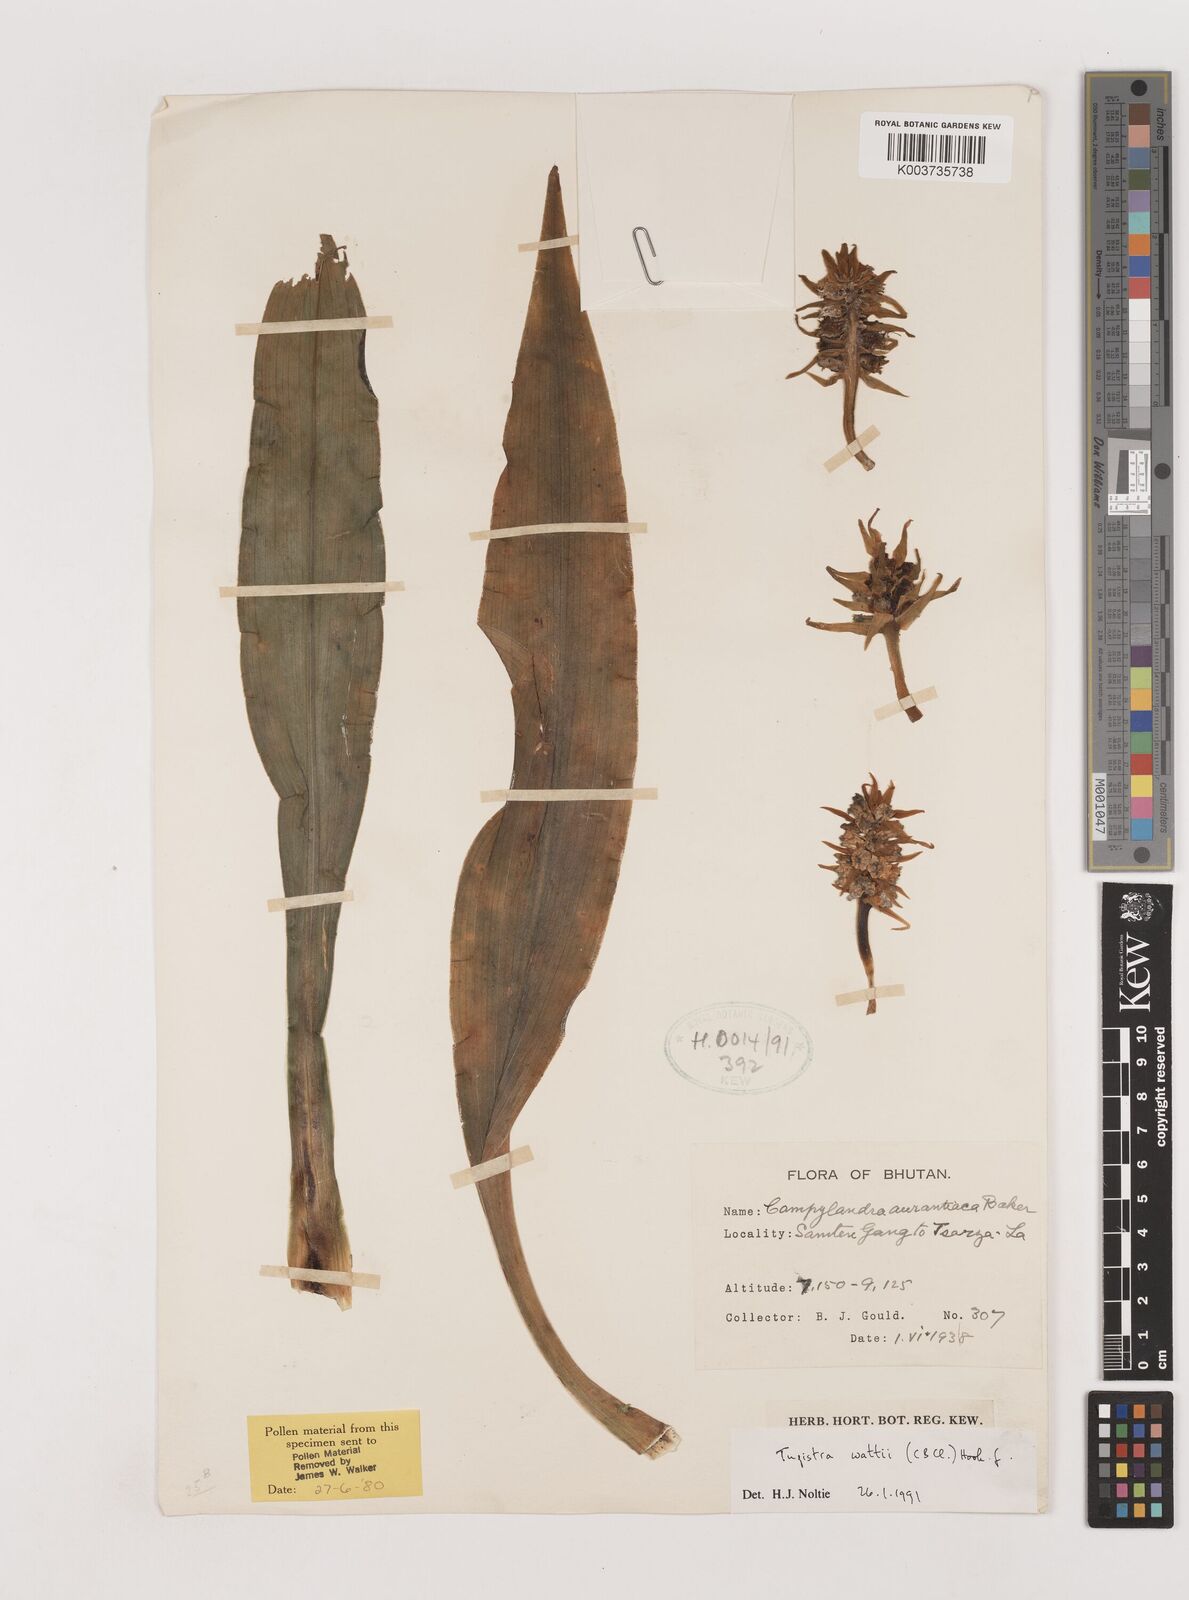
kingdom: Plantae
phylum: Tracheophyta
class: Liliopsida
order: Asparagales
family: Asparagaceae
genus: Rohdea
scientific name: Rohdea wattii
